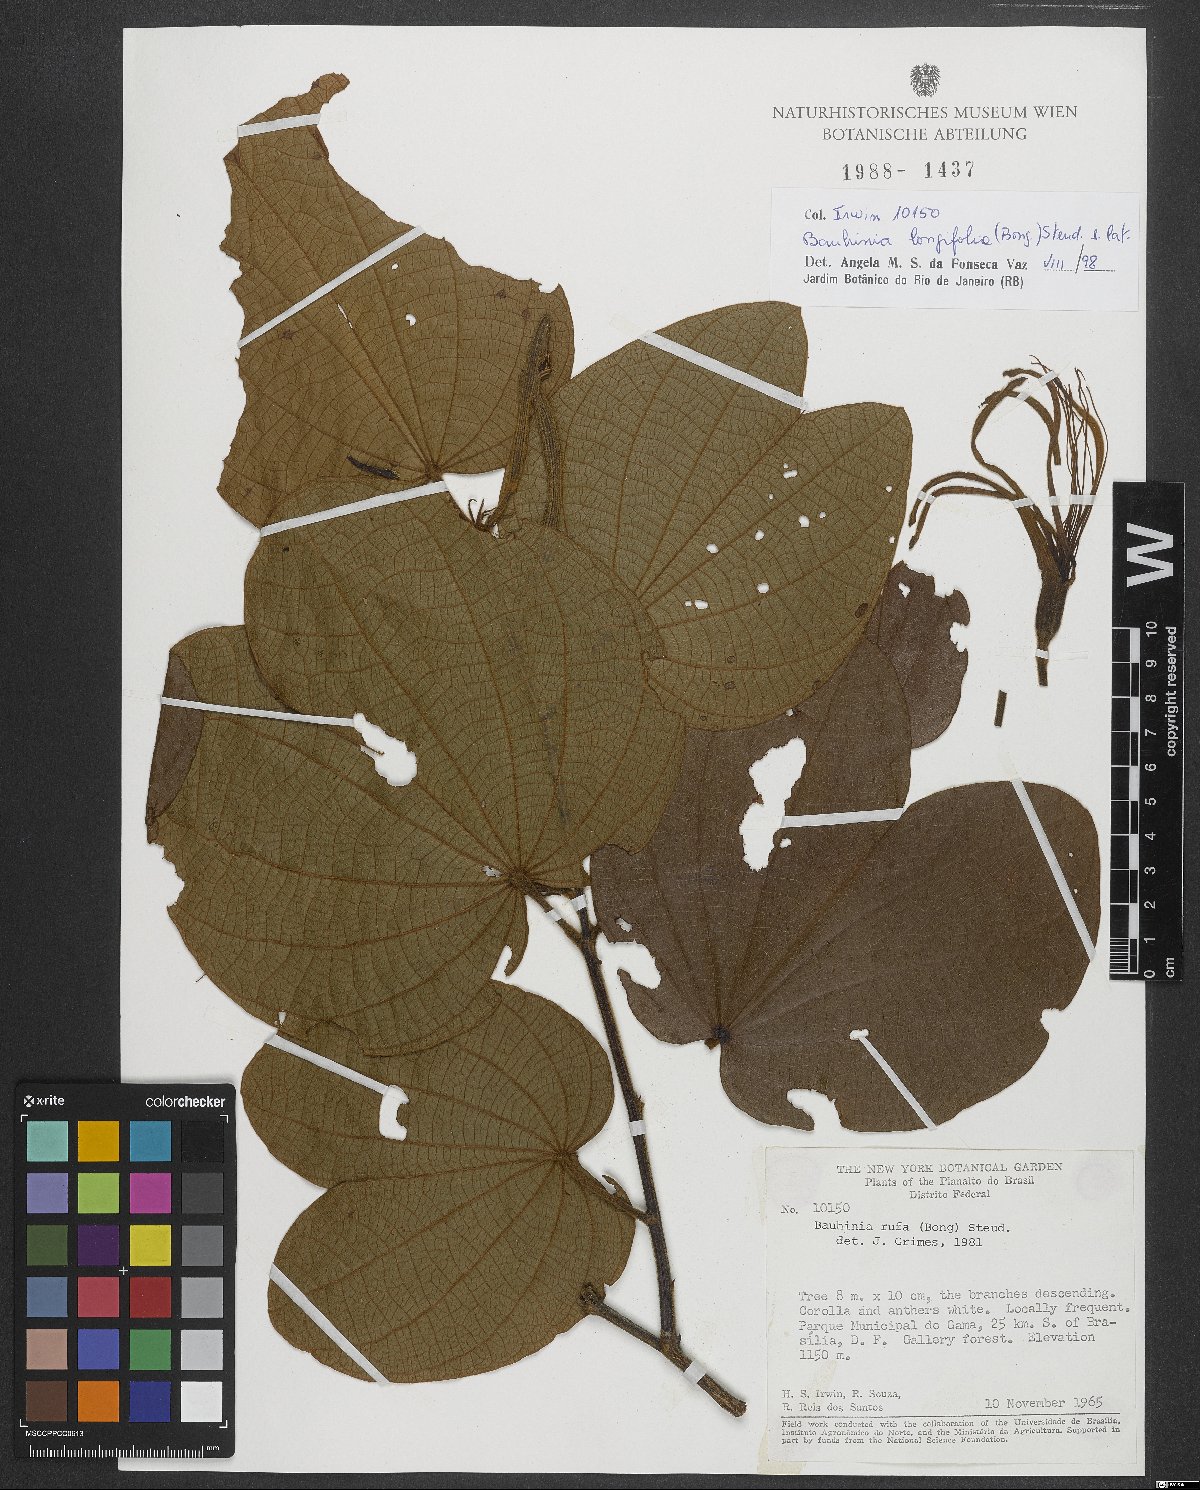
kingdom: Plantae
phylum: Tracheophyta
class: Magnoliopsida
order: Fabales
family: Fabaceae
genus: Bauhinia
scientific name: Bauhinia longifolia
